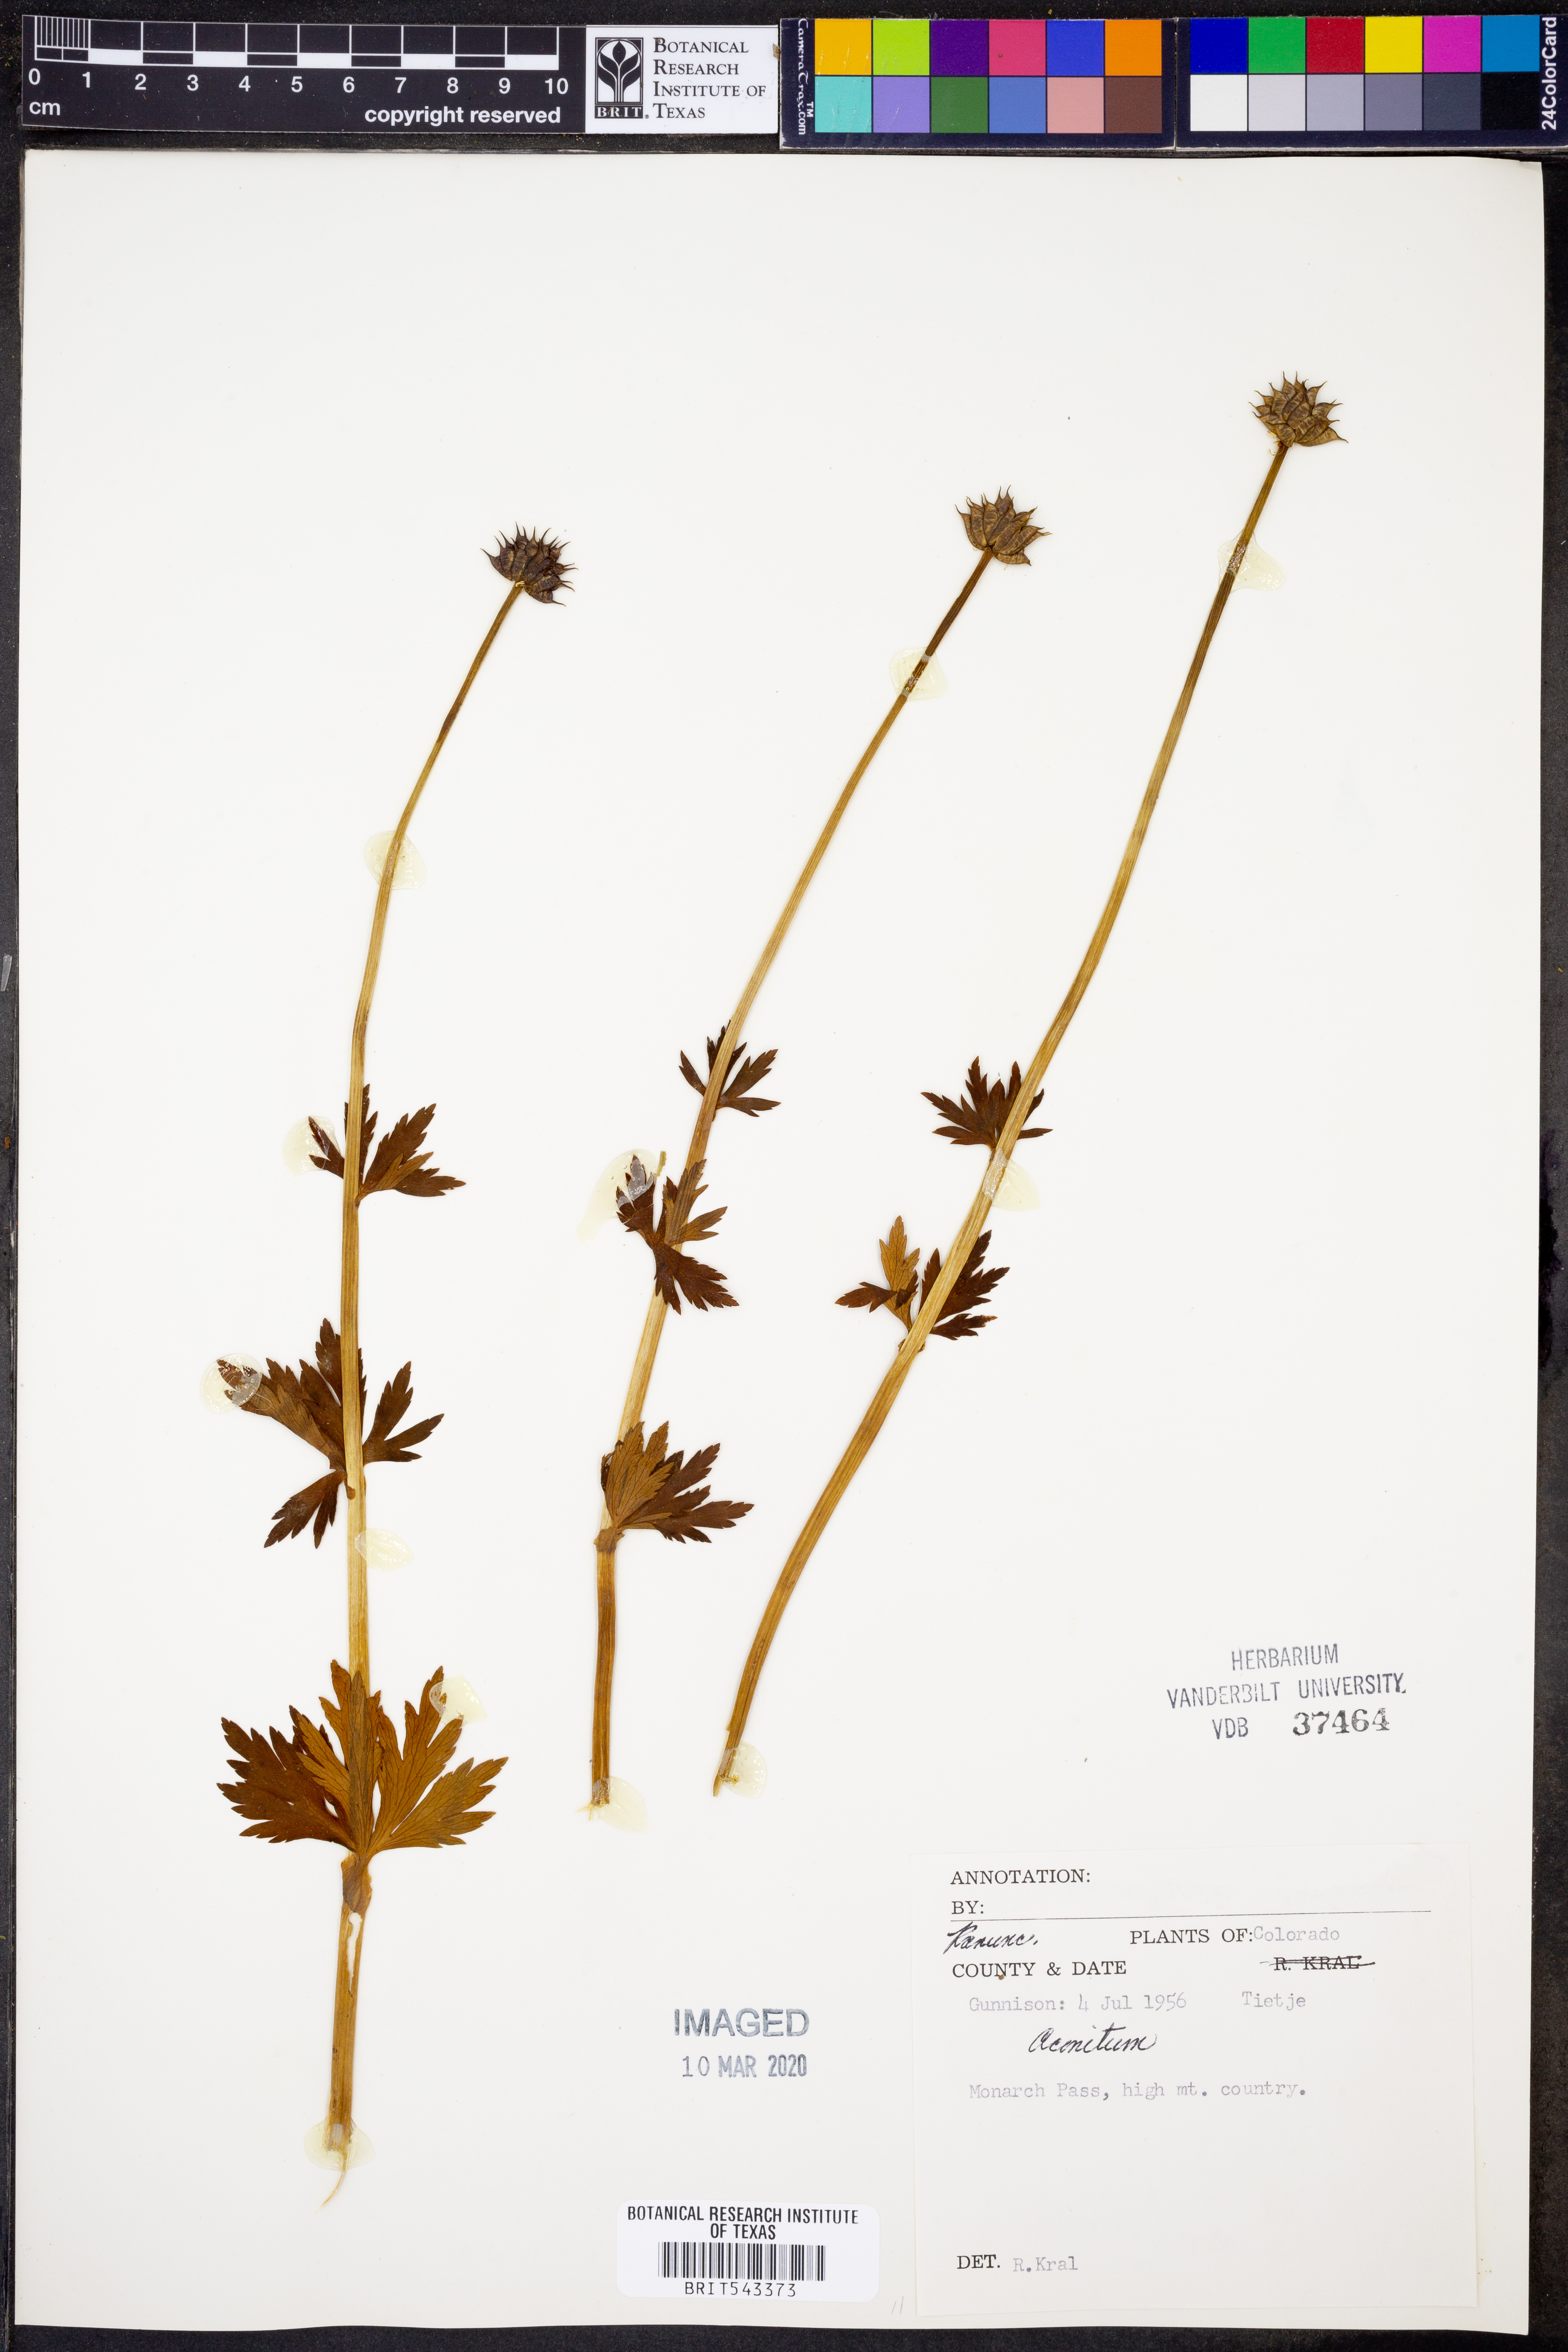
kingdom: Plantae
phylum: Tracheophyta
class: Magnoliopsida
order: Ranunculales
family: Ranunculaceae
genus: Aconitum
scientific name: Aconitum
